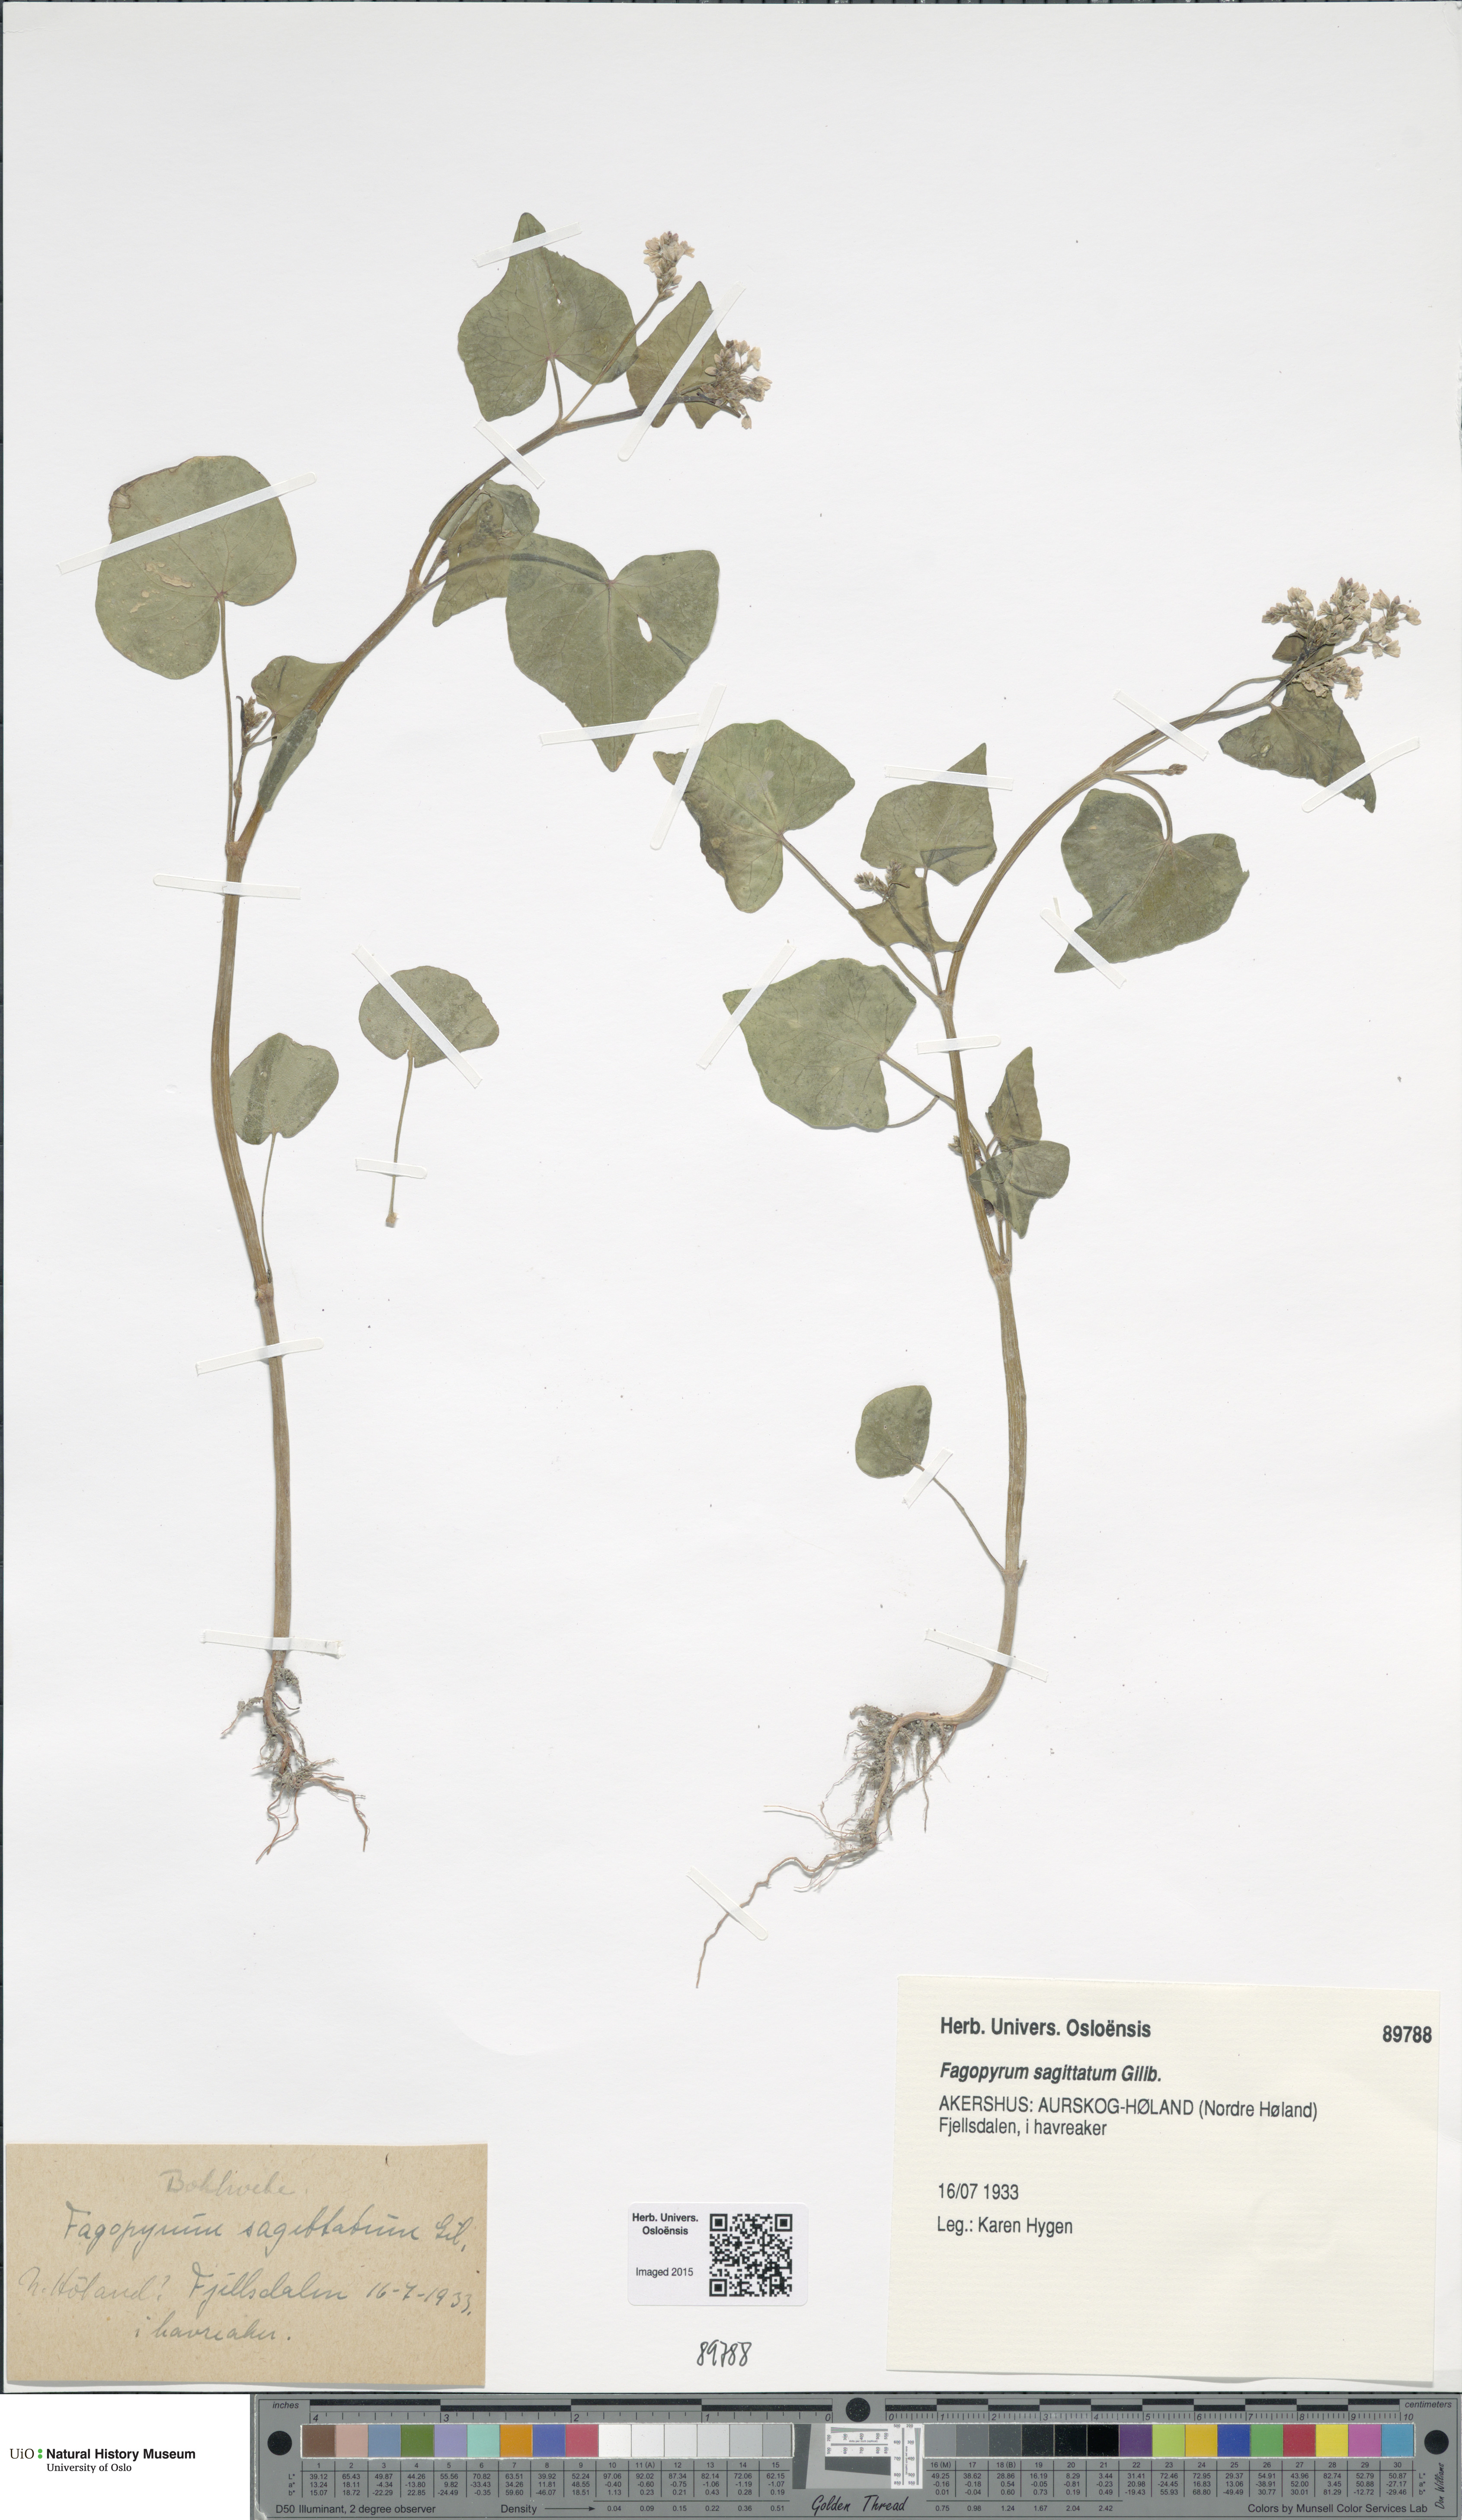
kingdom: Plantae
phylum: Tracheophyta
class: Magnoliopsida
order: Caryophyllales
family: Polygonaceae
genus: Fagopyrum
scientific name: Fagopyrum esculentum
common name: Buckwheat
